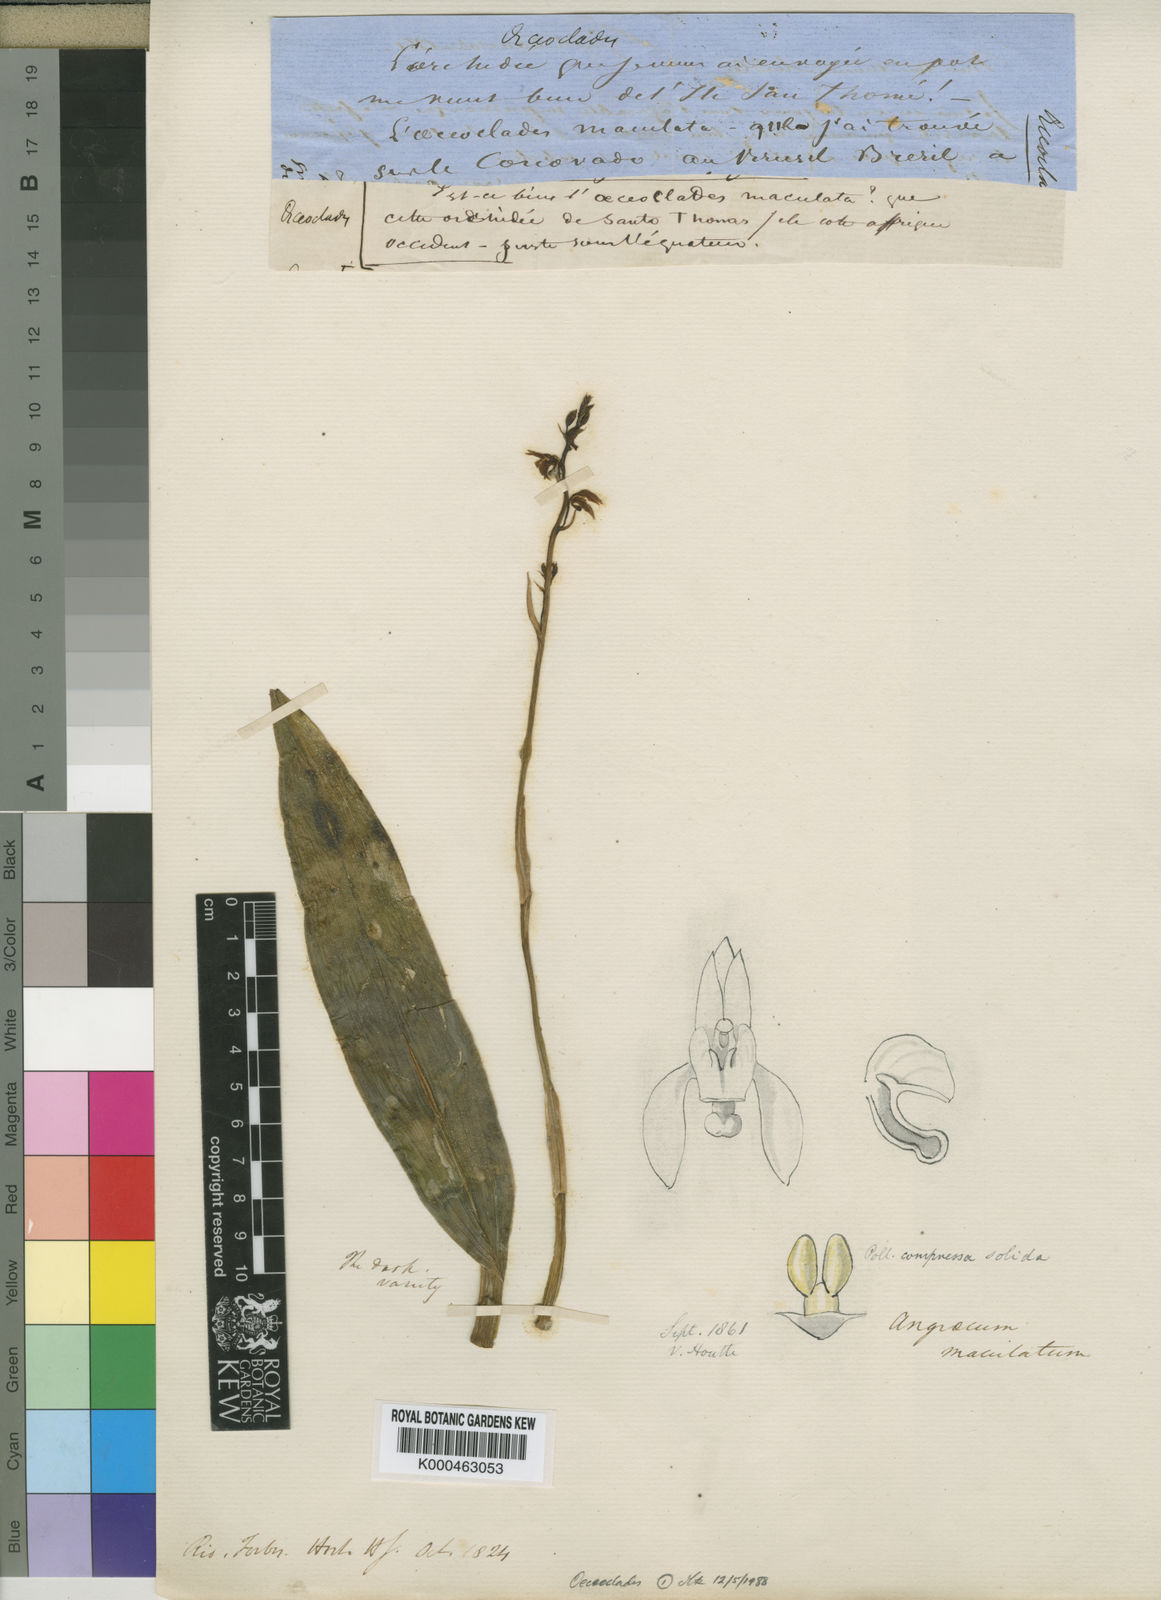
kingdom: Plantae
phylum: Tracheophyta
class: Liliopsida
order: Asparagales
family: Orchidaceae
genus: Eulophia
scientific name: Eulophia maculata
